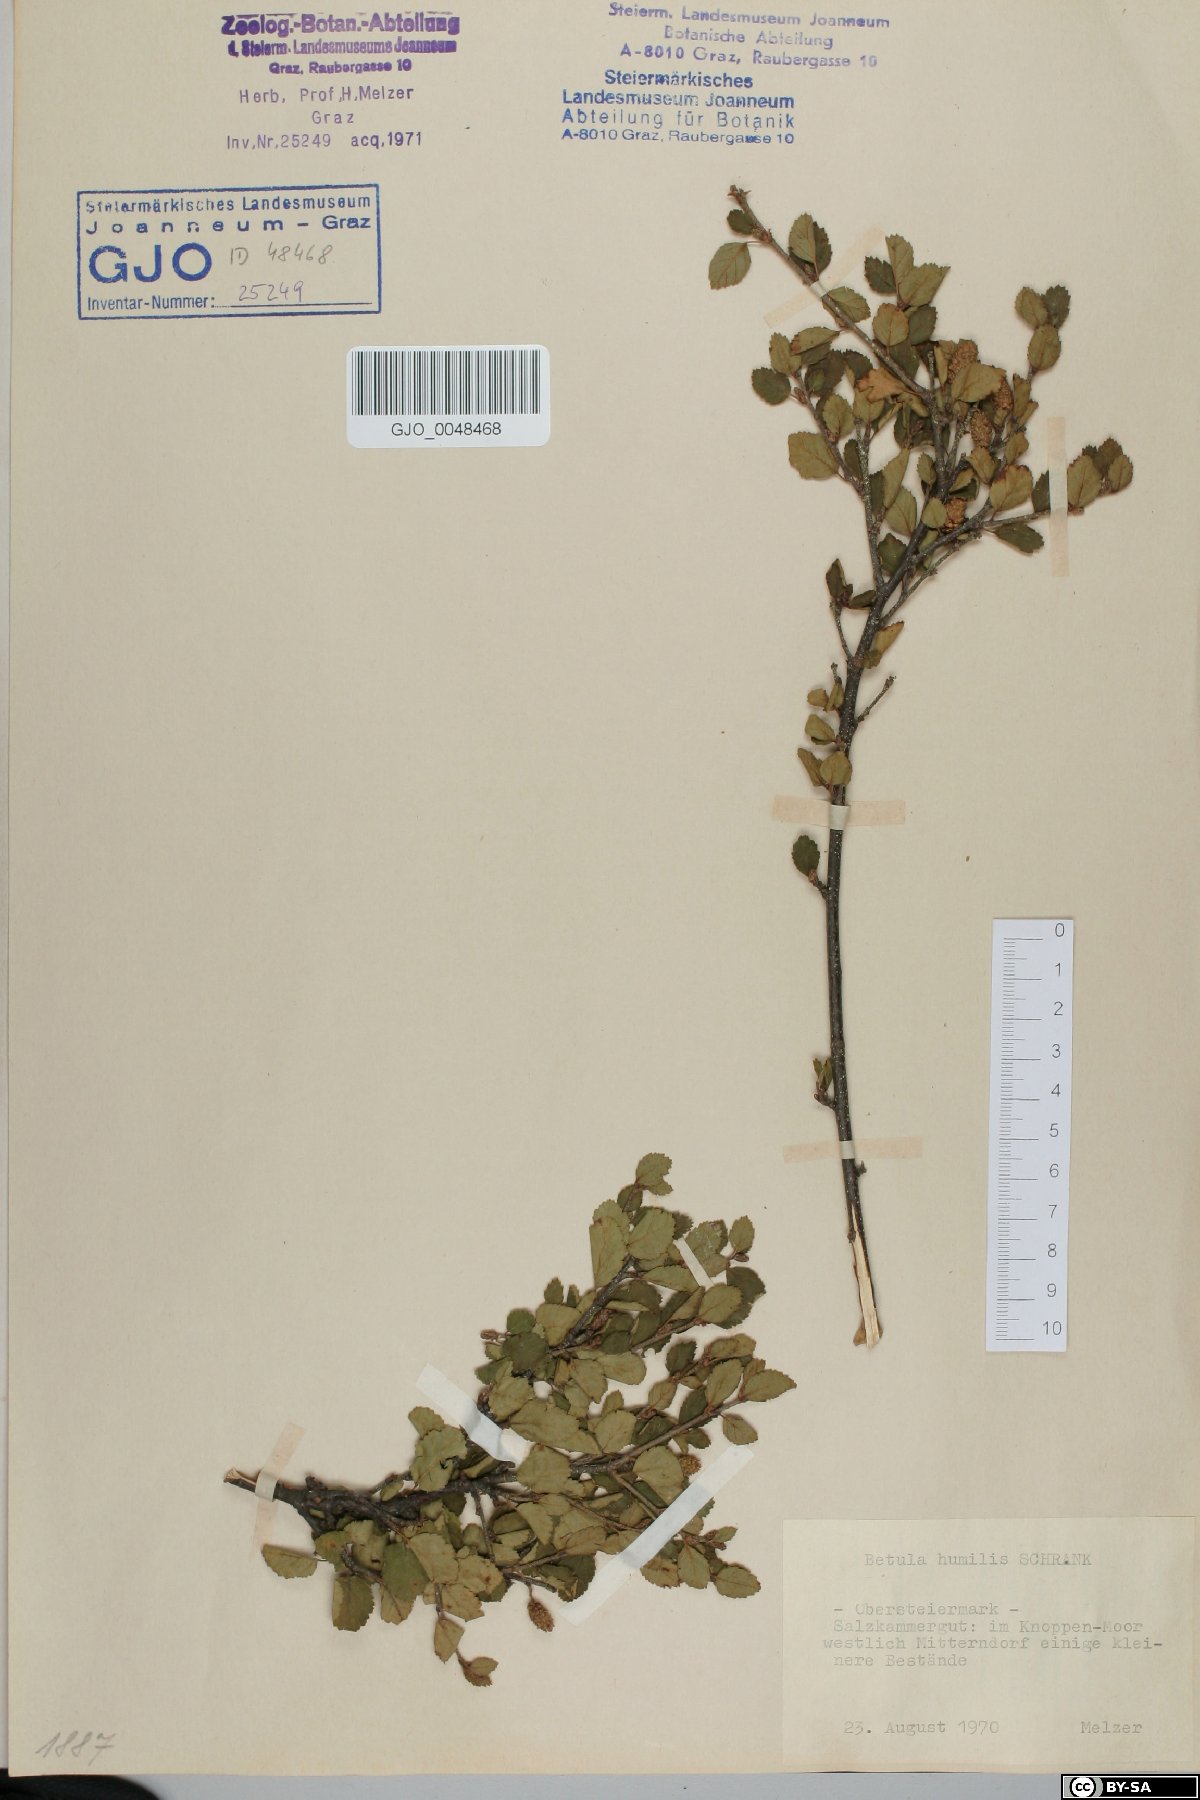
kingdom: Plantae
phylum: Tracheophyta
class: Magnoliopsida
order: Fagales
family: Betulaceae
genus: Betula
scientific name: Betula humilis
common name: Shrubby birch
